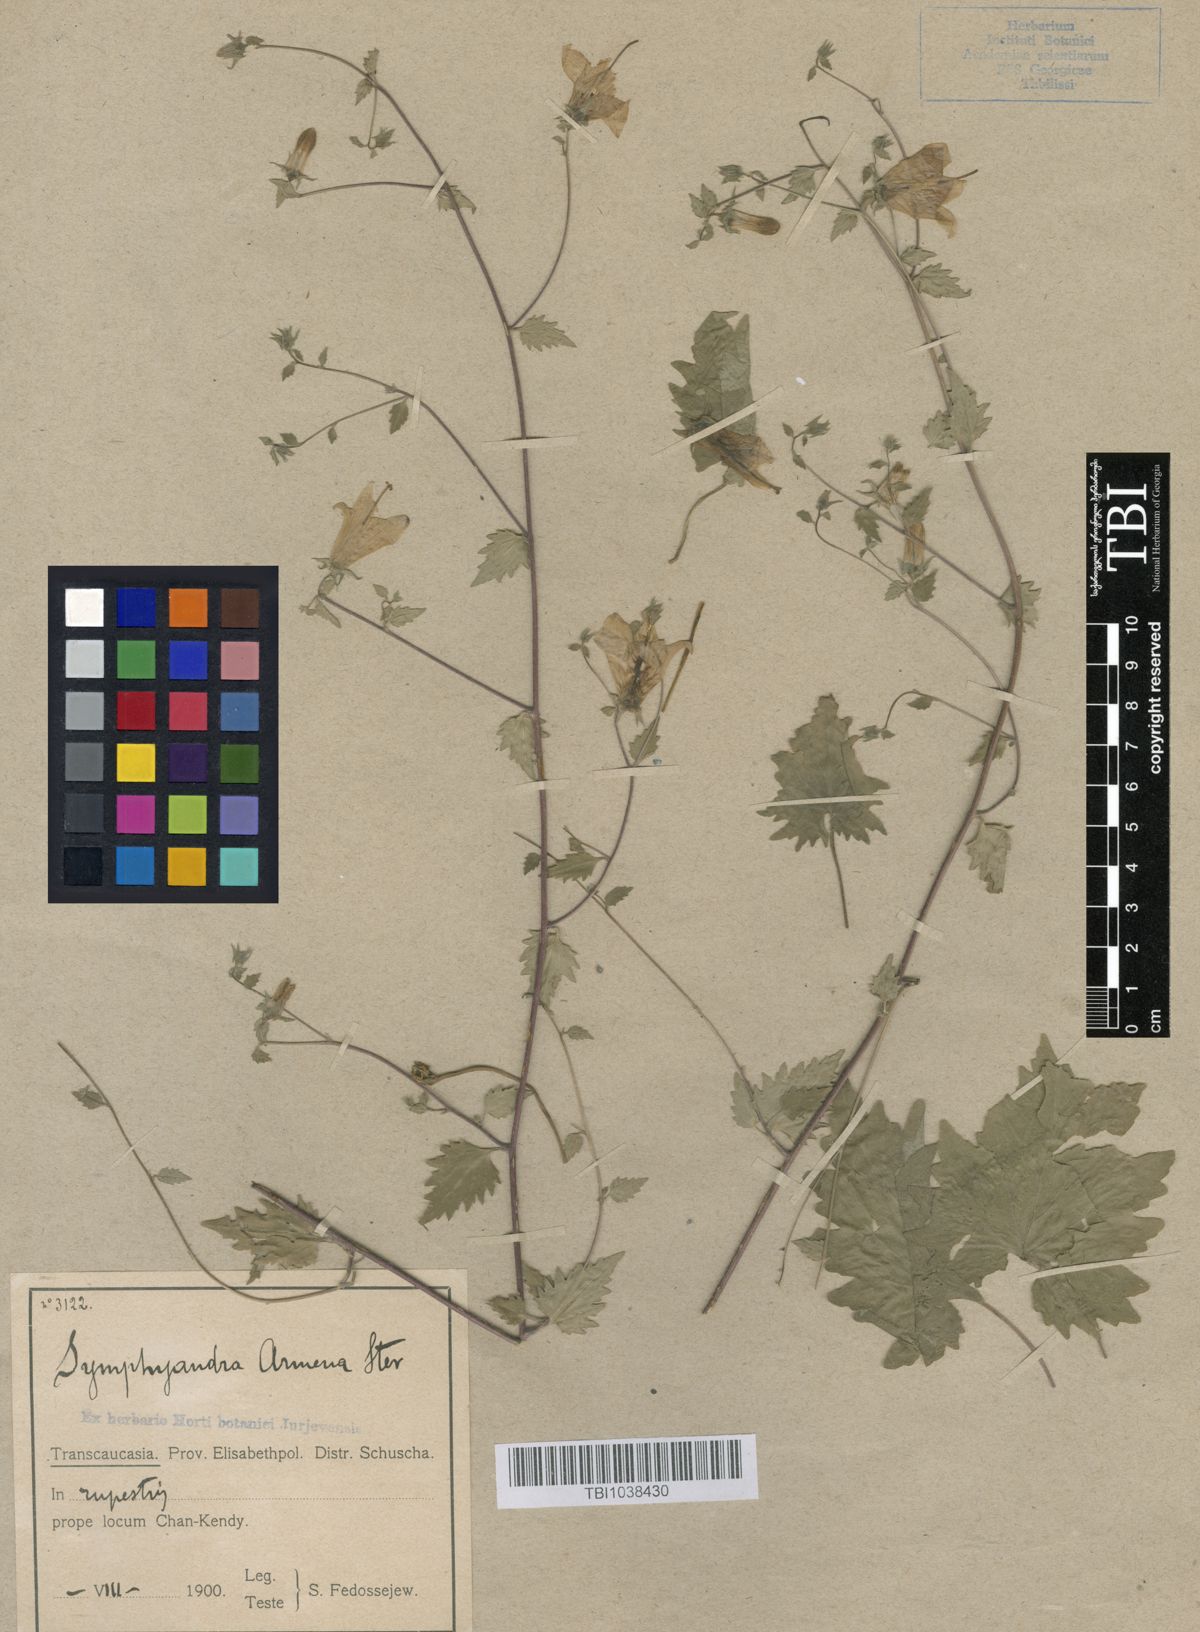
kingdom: Plantae
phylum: Tracheophyta
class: Magnoliopsida
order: Asterales
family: Campanulaceae
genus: Campanula
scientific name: Campanula armena
